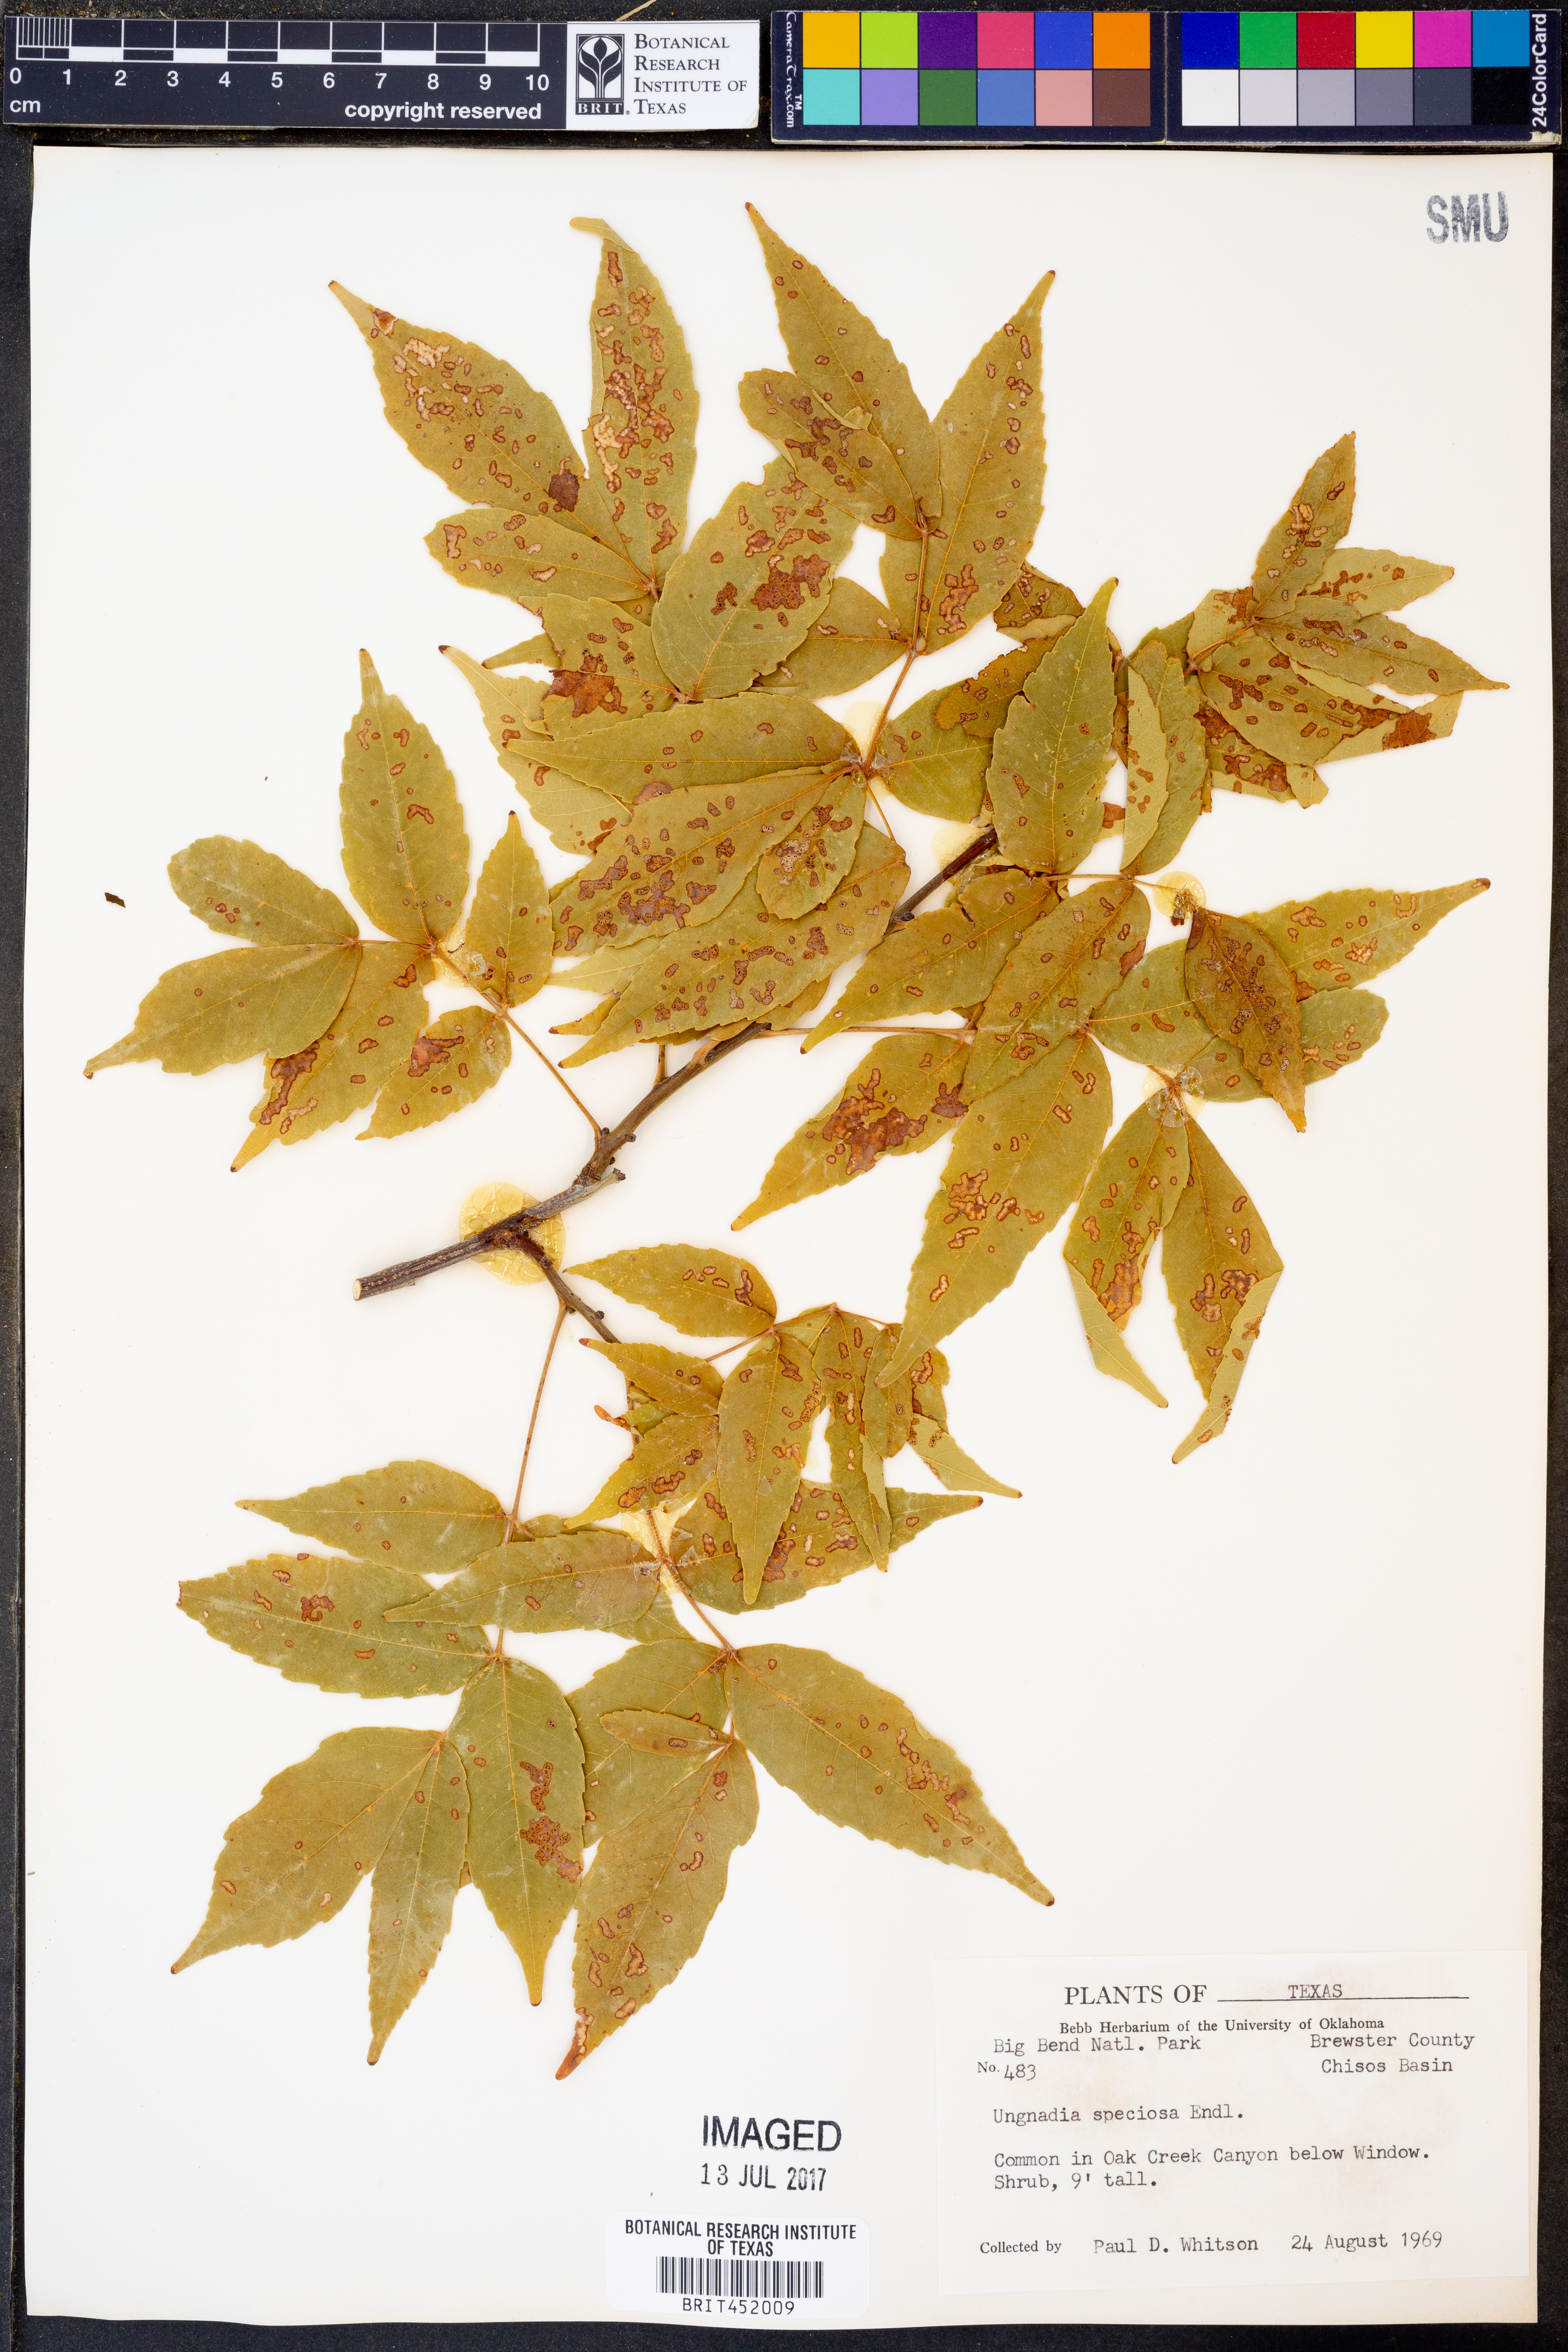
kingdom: Plantae
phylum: Tracheophyta
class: Magnoliopsida
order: Sapindales
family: Sapindaceae
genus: Ungnadia
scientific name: Ungnadia speciosa
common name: Texas-buckeye
